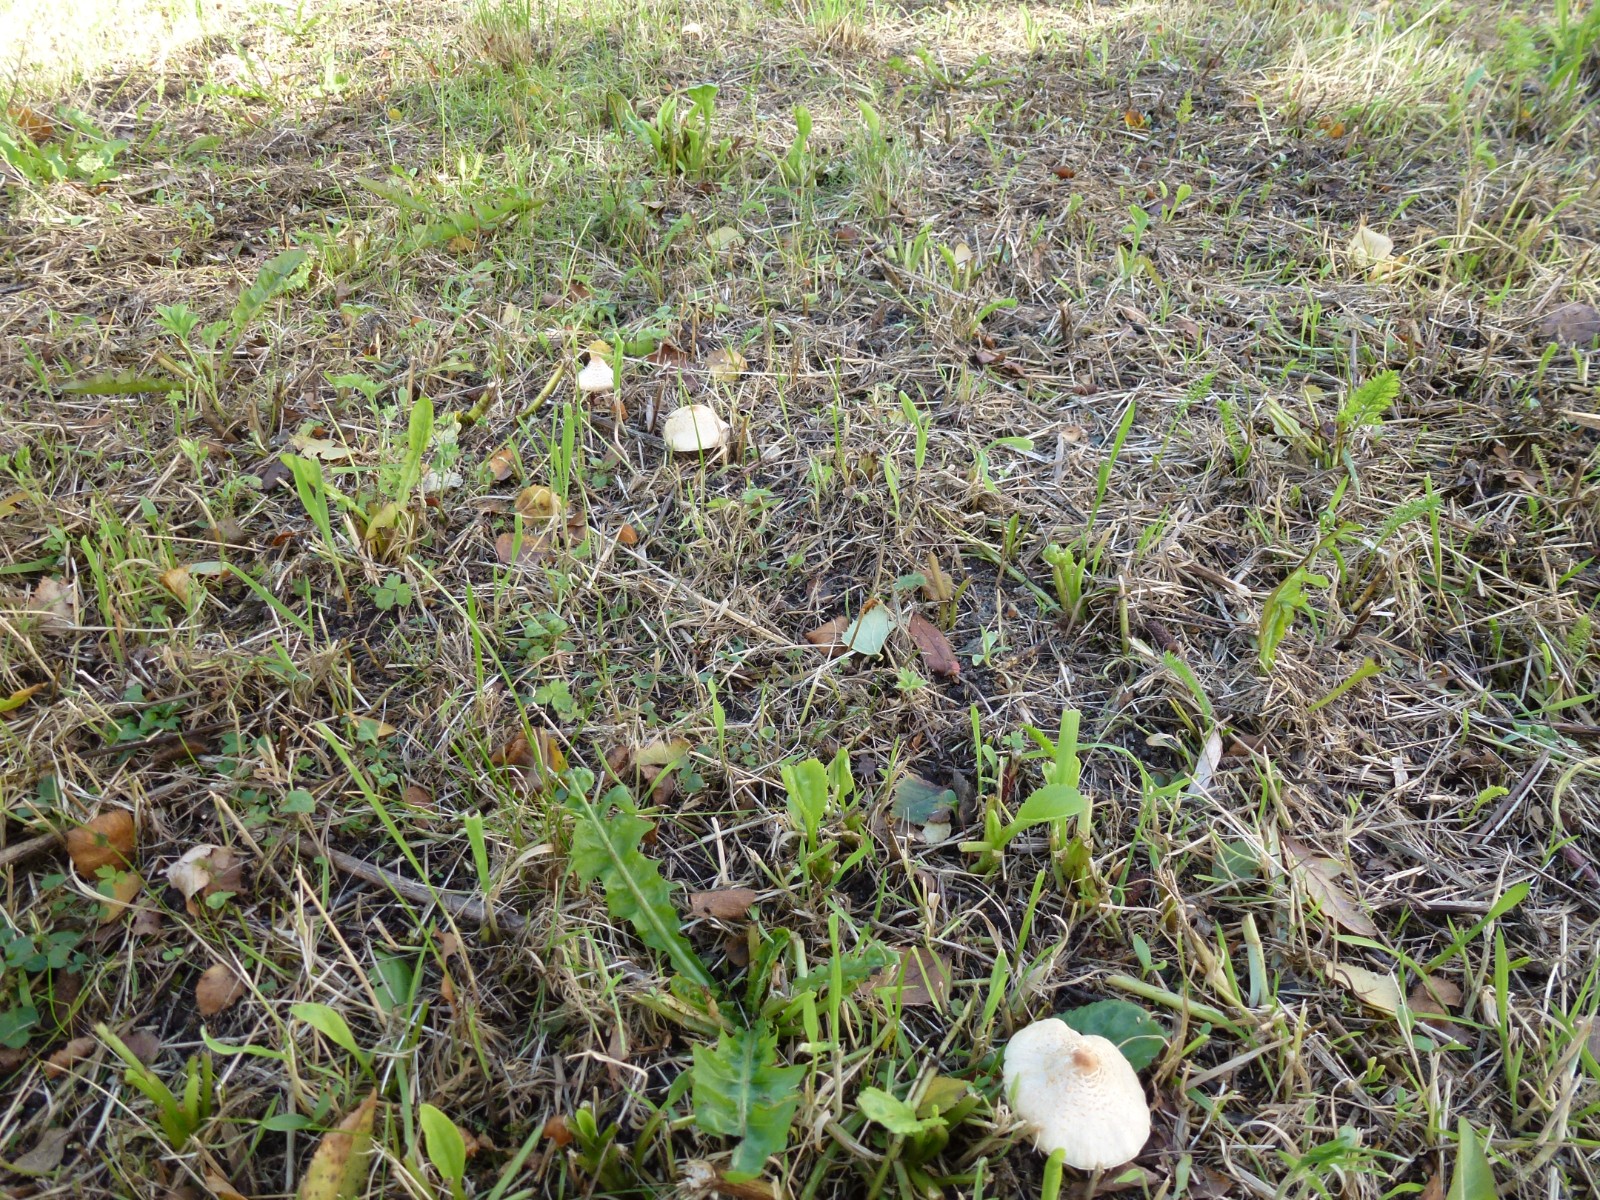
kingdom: Fungi
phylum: Basidiomycota
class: Agaricomycetes
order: Agaricales
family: Agaricaceae
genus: Lepiota
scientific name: Lepiota cristata
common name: stinkende parasolhat
